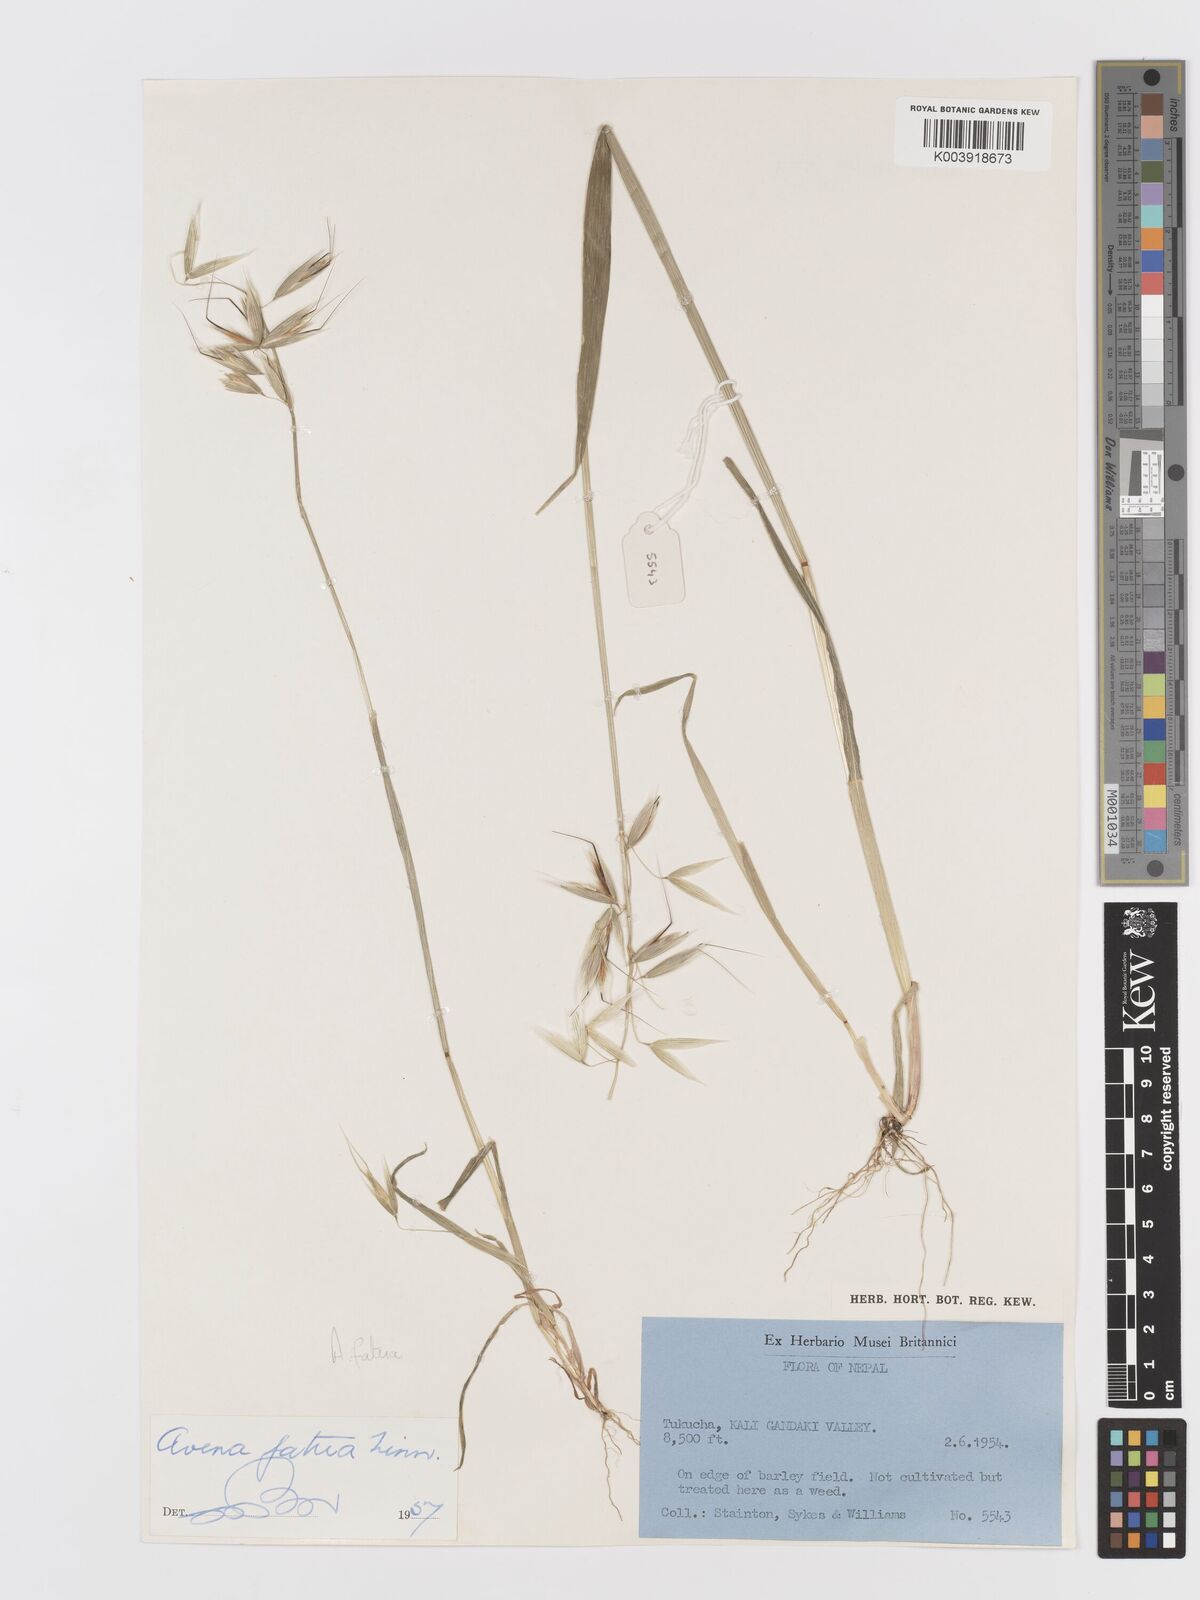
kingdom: Plantae
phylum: Tracheophyta
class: Liliopsida
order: Poales
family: Poaceae
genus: Avena
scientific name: Avena fatua
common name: Wild oat
